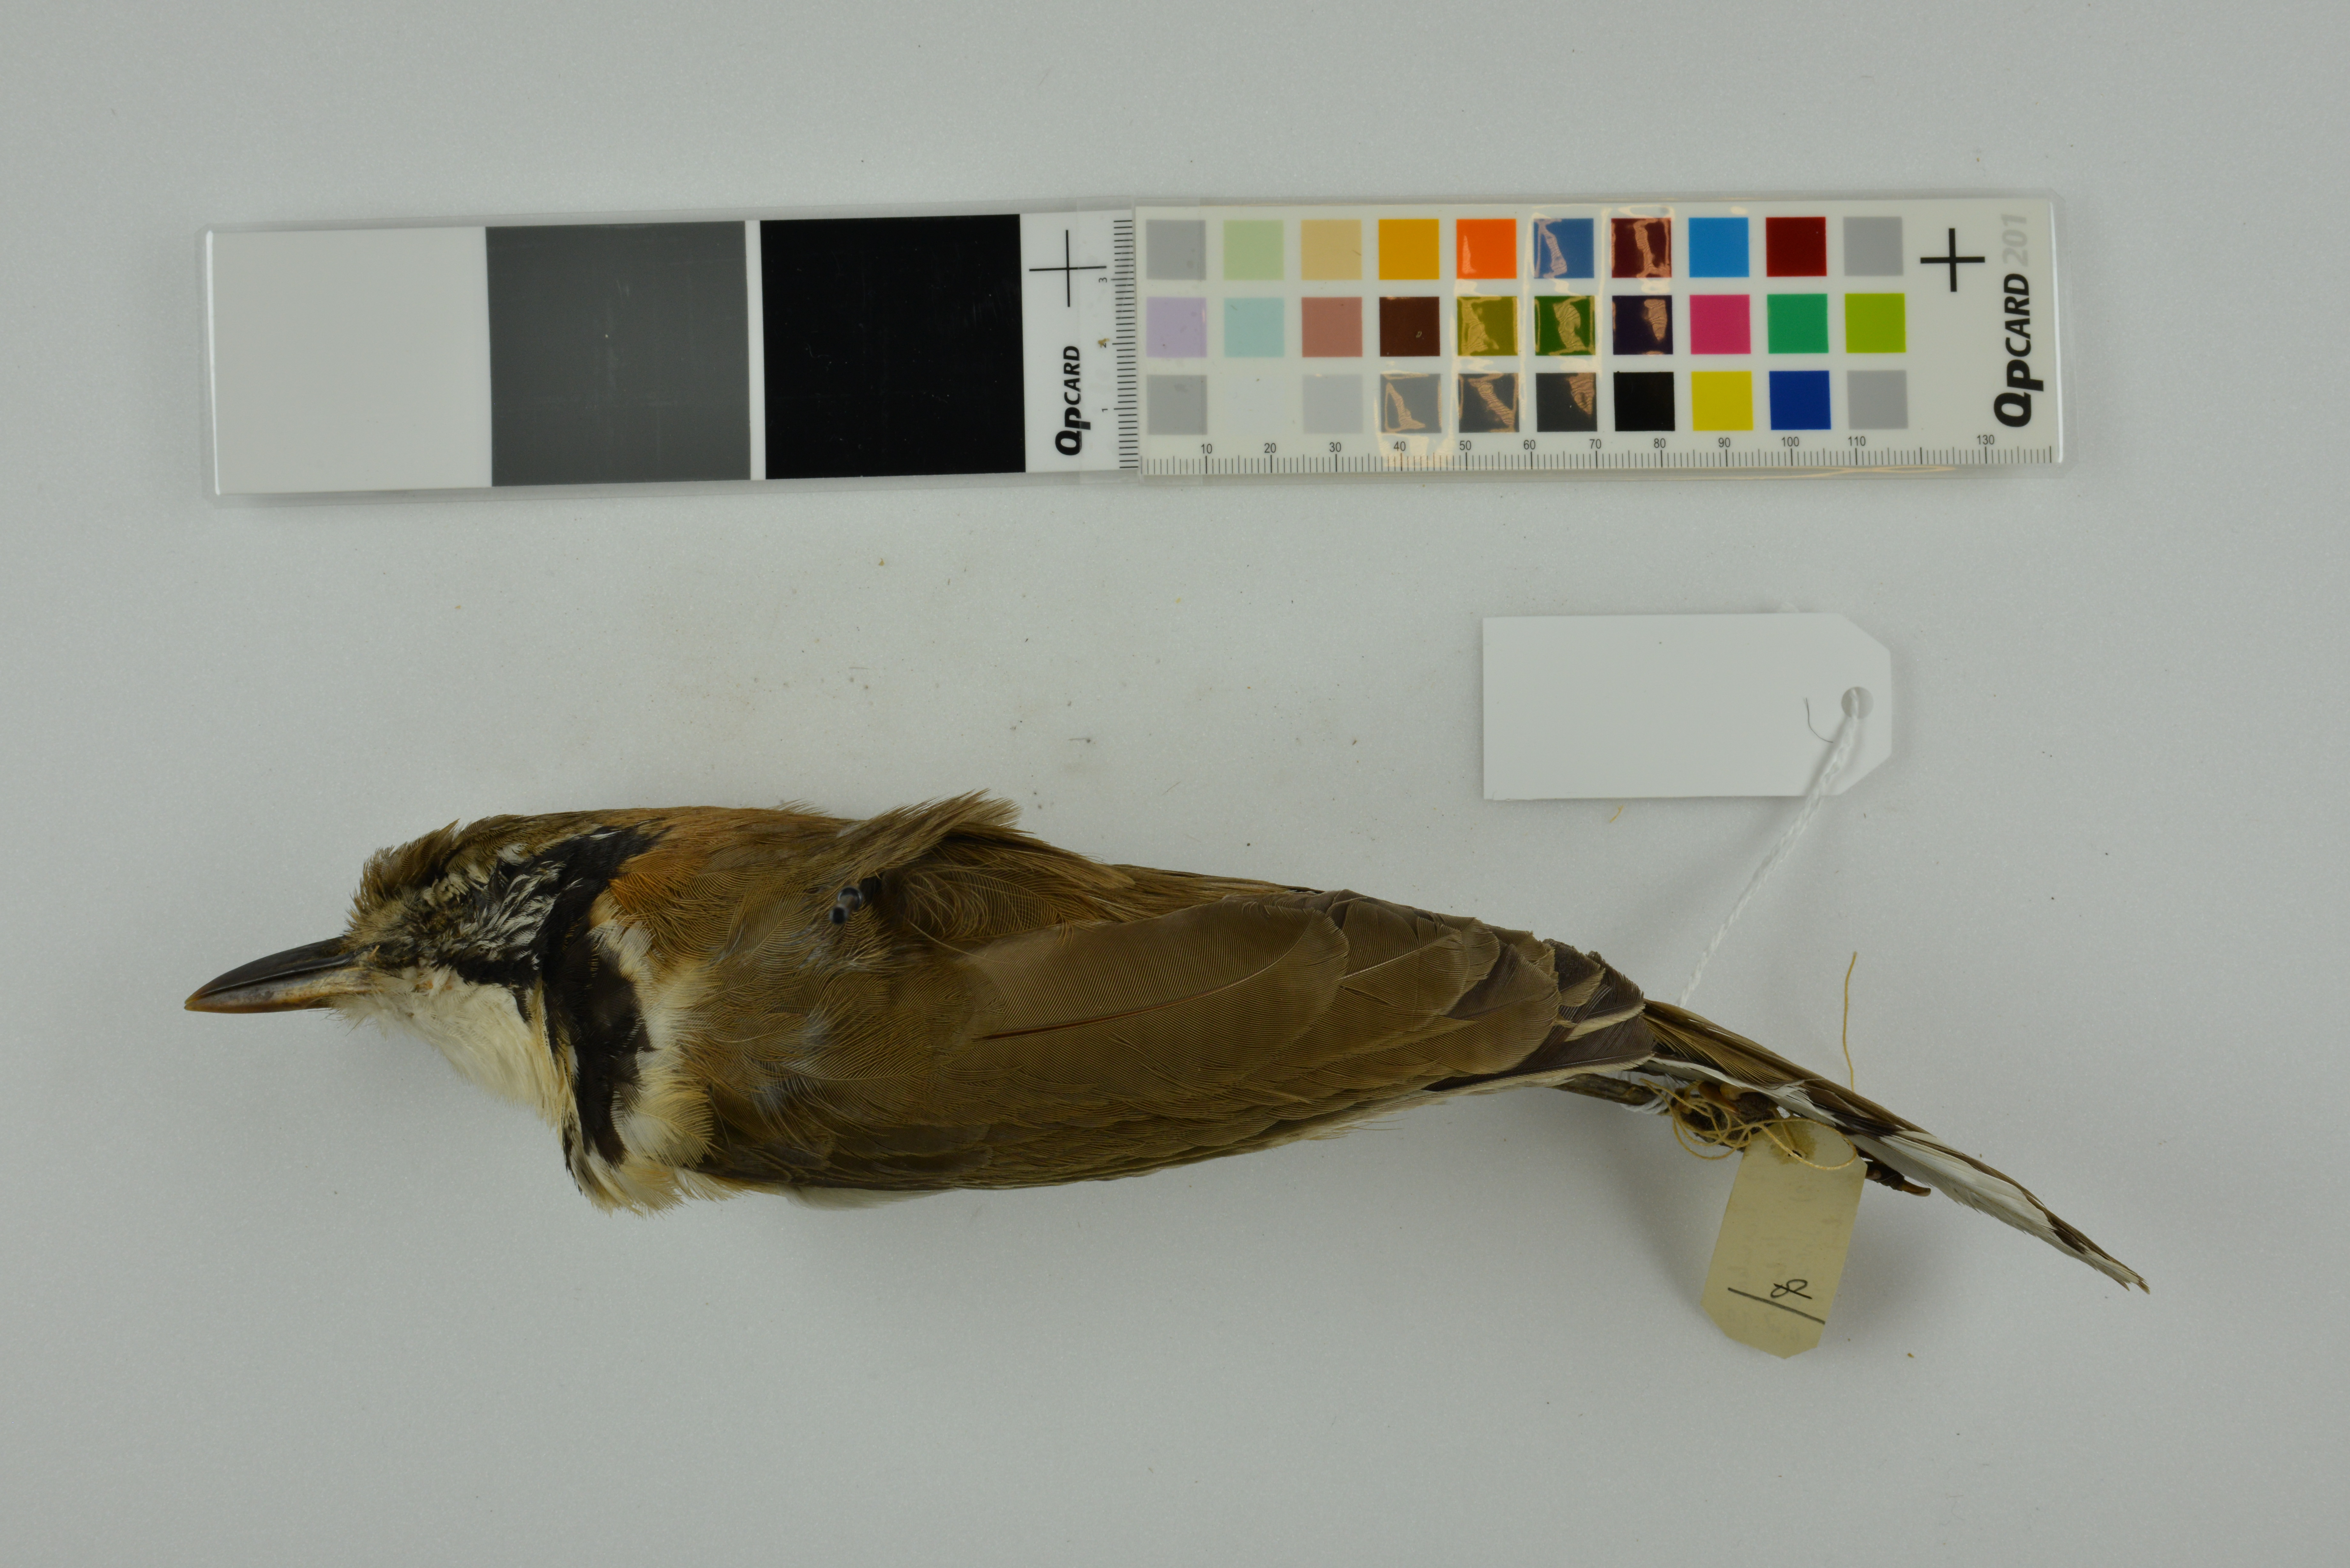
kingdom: Animalia
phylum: Chordata
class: Aves
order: Passeriformes
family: Leiothrichidae
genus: Garrulax
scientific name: Garrulax pectoralis
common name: Greater necklaced laughingthrush
